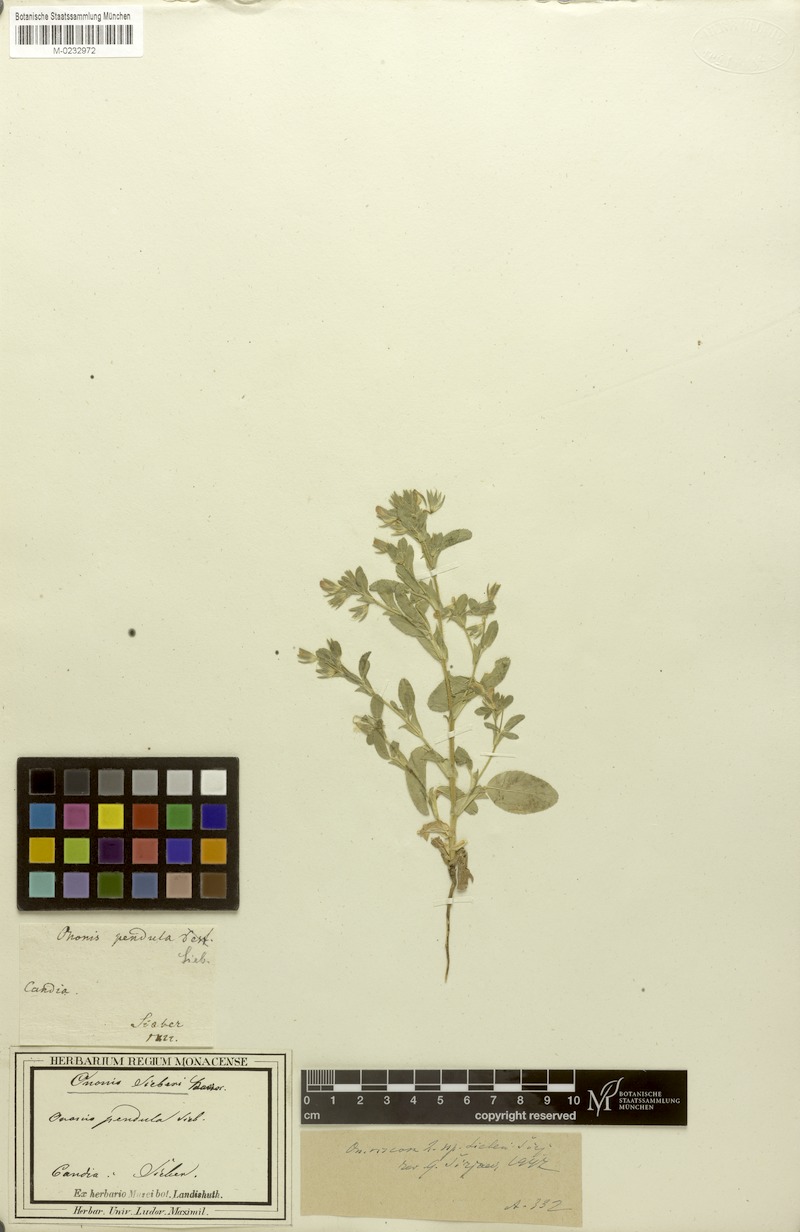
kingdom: Plantae
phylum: Tracheophyta
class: Magnoliopsida
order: Fabales
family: Fabaceae
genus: Ononis
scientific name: Ononis sieberi
